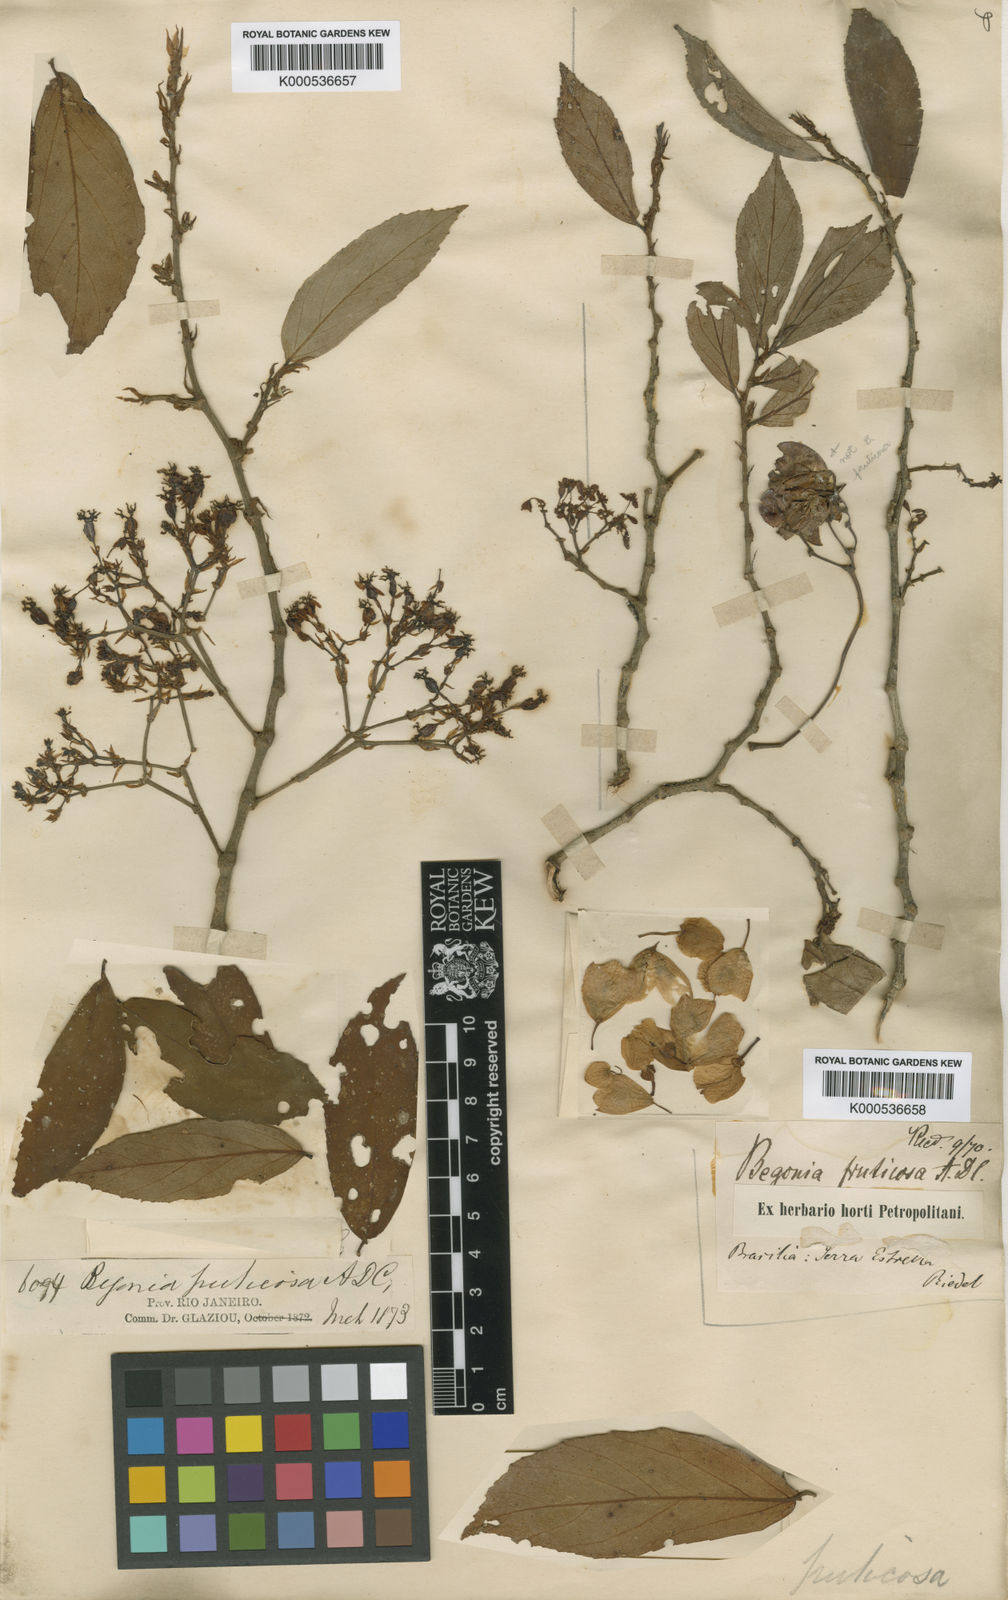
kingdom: Plantae
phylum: Tracheophyta
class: Magnoliopsida
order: Cucurbitales
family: Begoniaceae
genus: Begonia
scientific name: Begonia fruticosa
